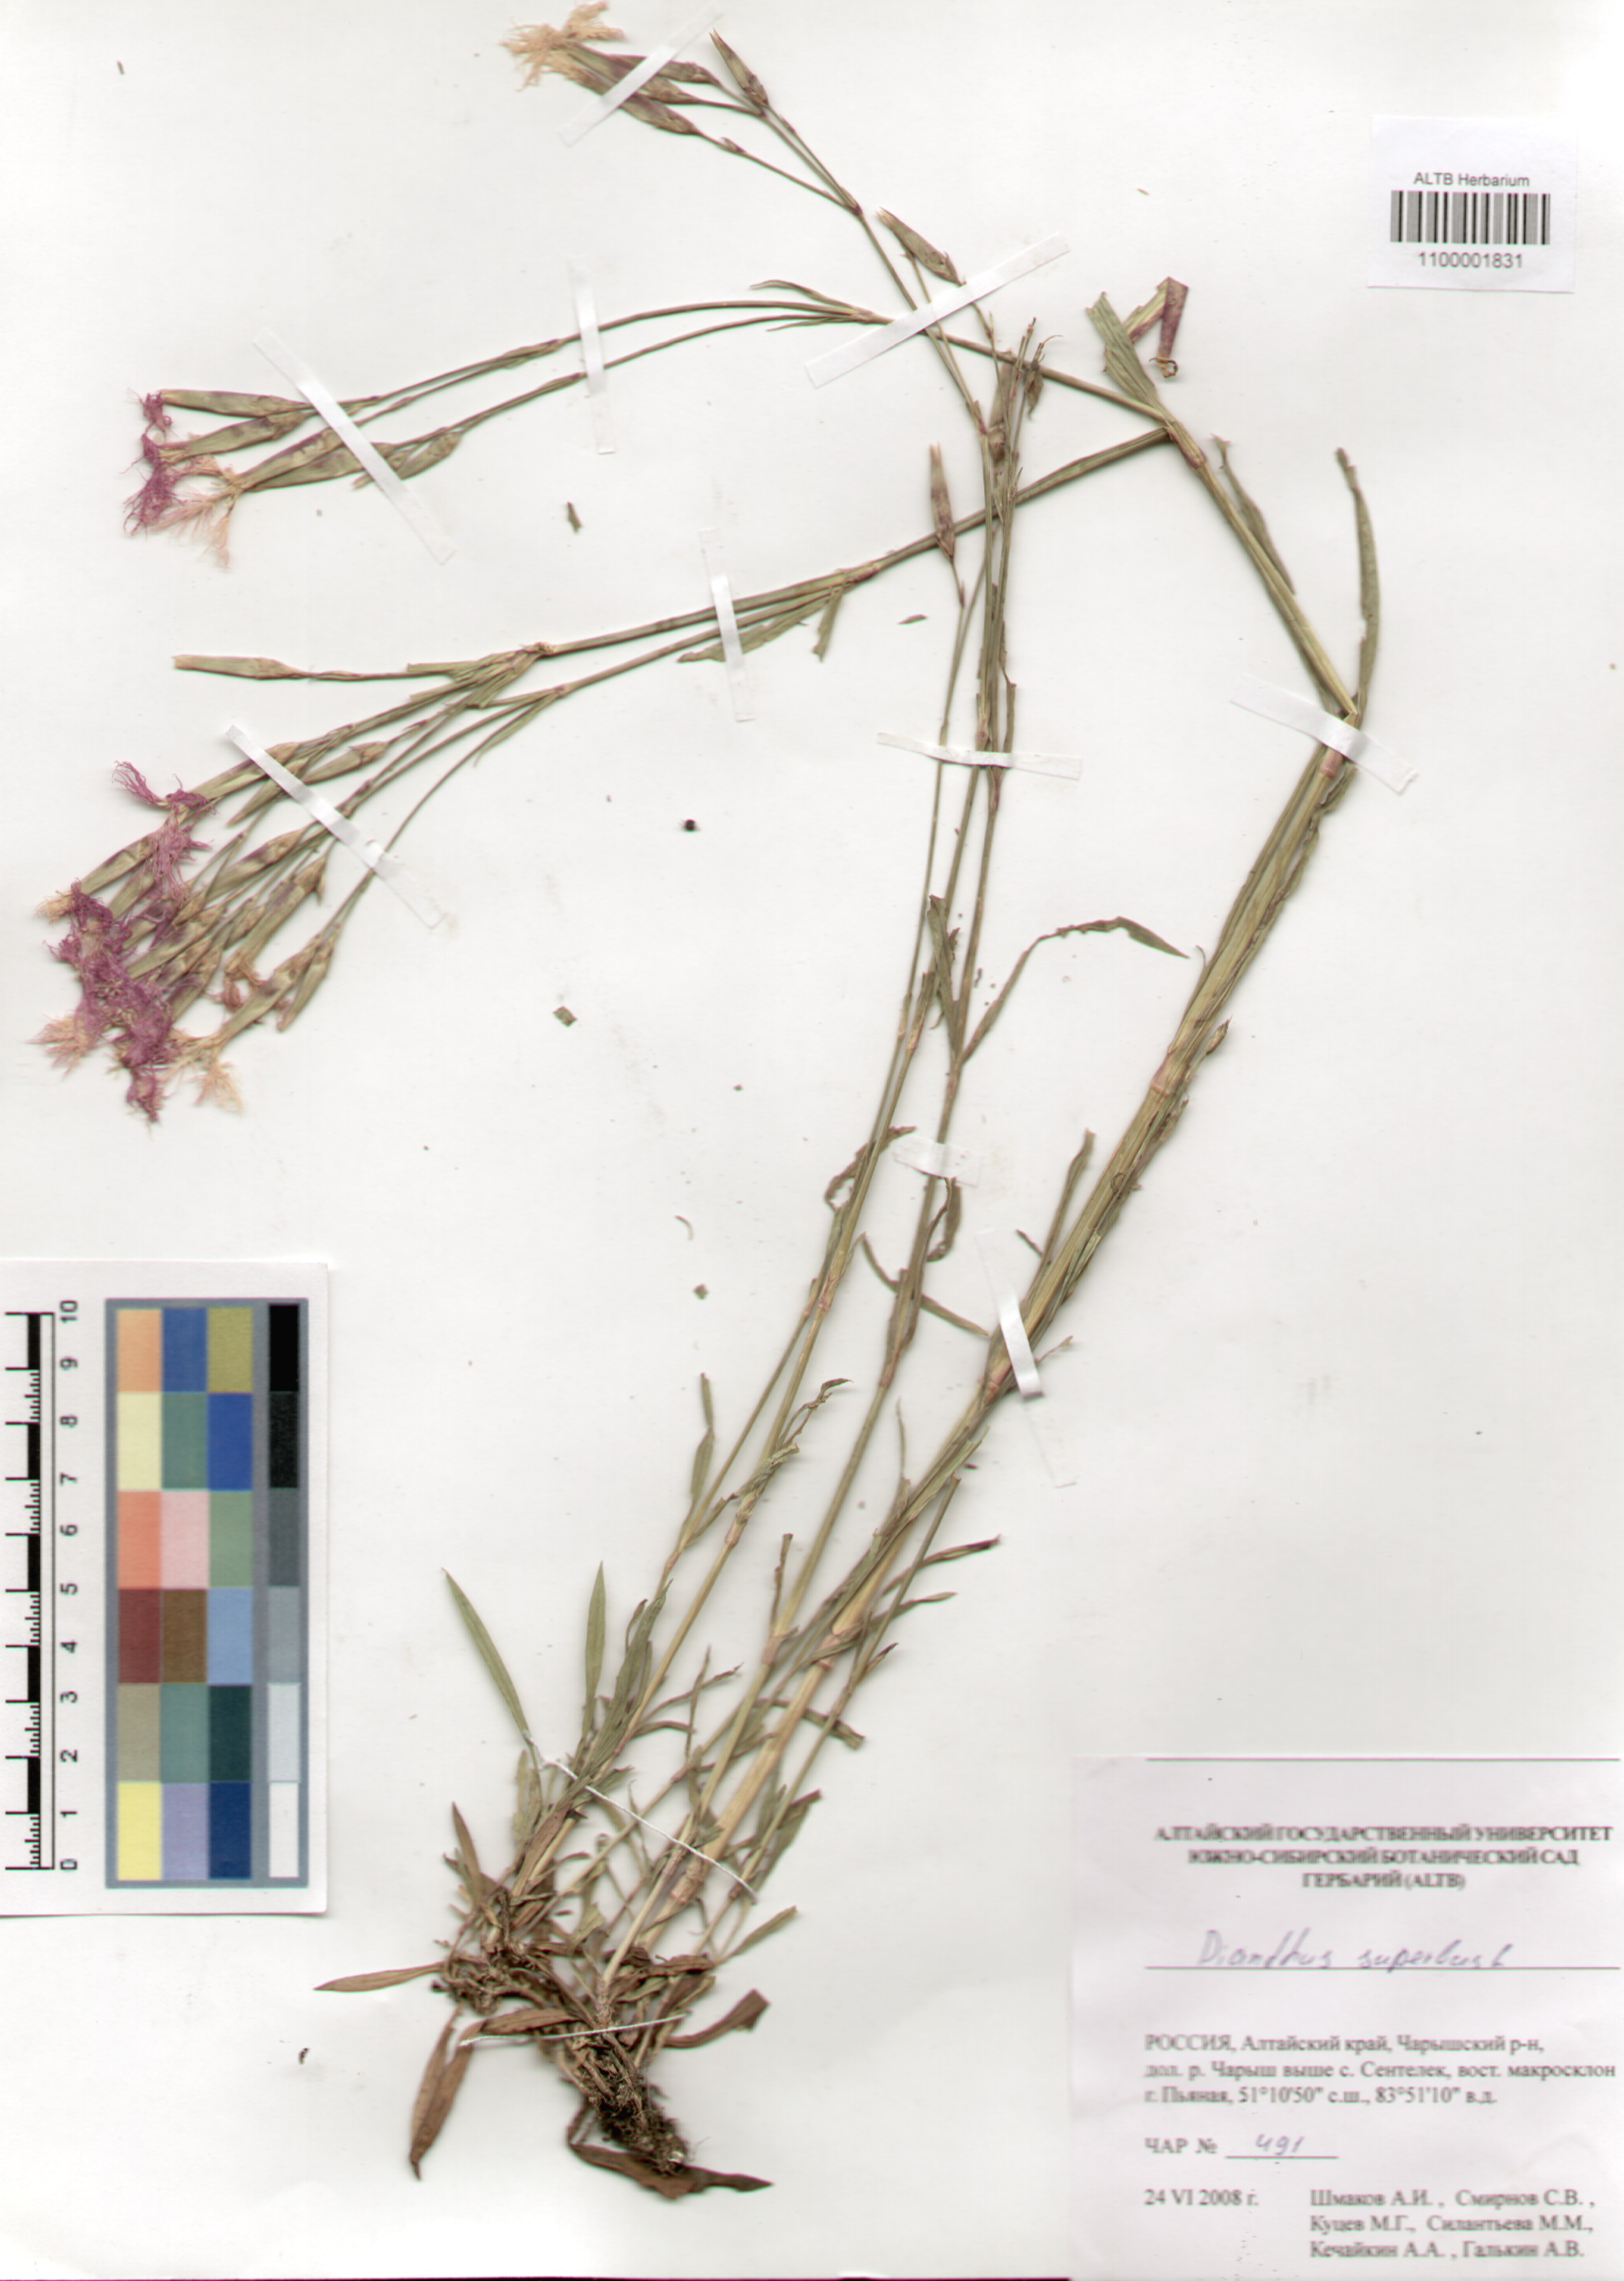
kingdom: Plantae
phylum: Tracheophyta
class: Magnoliopsida
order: Caryophyllales
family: Caryophyllaceae
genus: Dianthus
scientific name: Dianthus superbus
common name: Fringed pink
